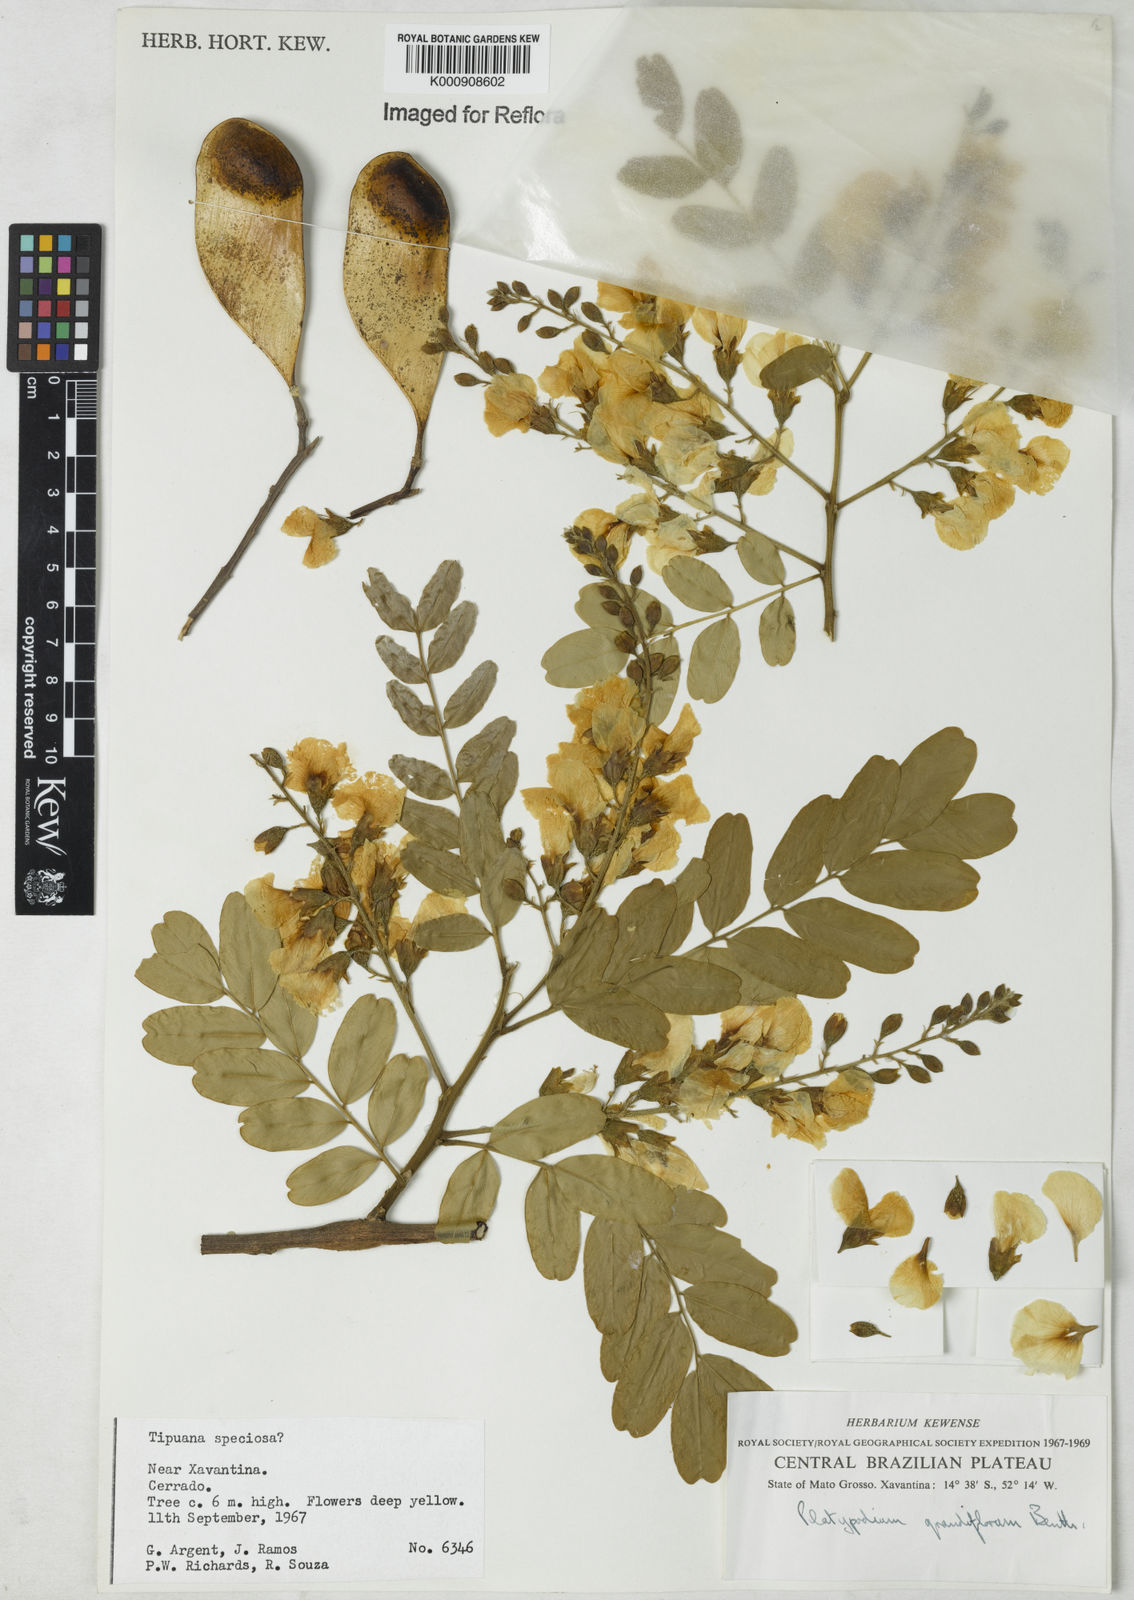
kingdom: Plantae
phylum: Tracheophyta
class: Magnoliopsida
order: Fabales
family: Fabaceae
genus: Platypodium
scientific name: Platypodium elegans
